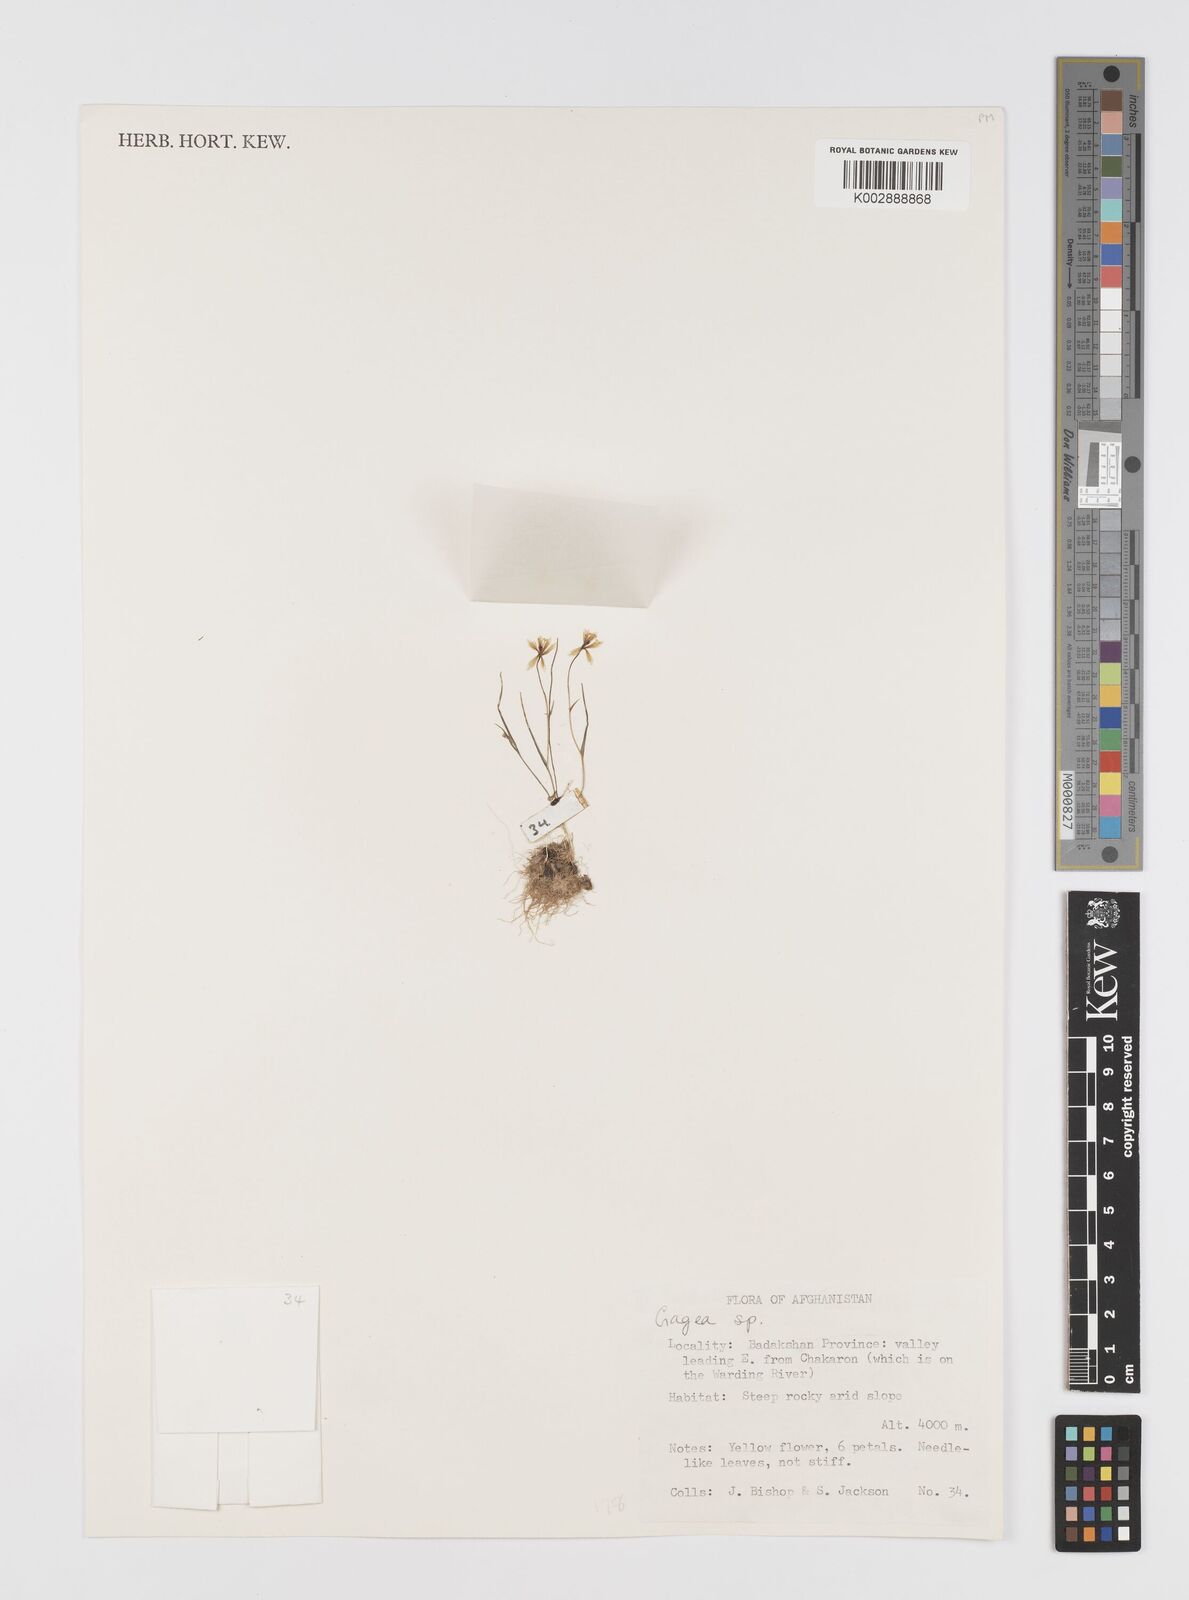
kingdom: Plantae
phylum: Tracheophyta
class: Liliopsida
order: Liliales
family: Liliaceae
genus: Gagea
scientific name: Gagea
